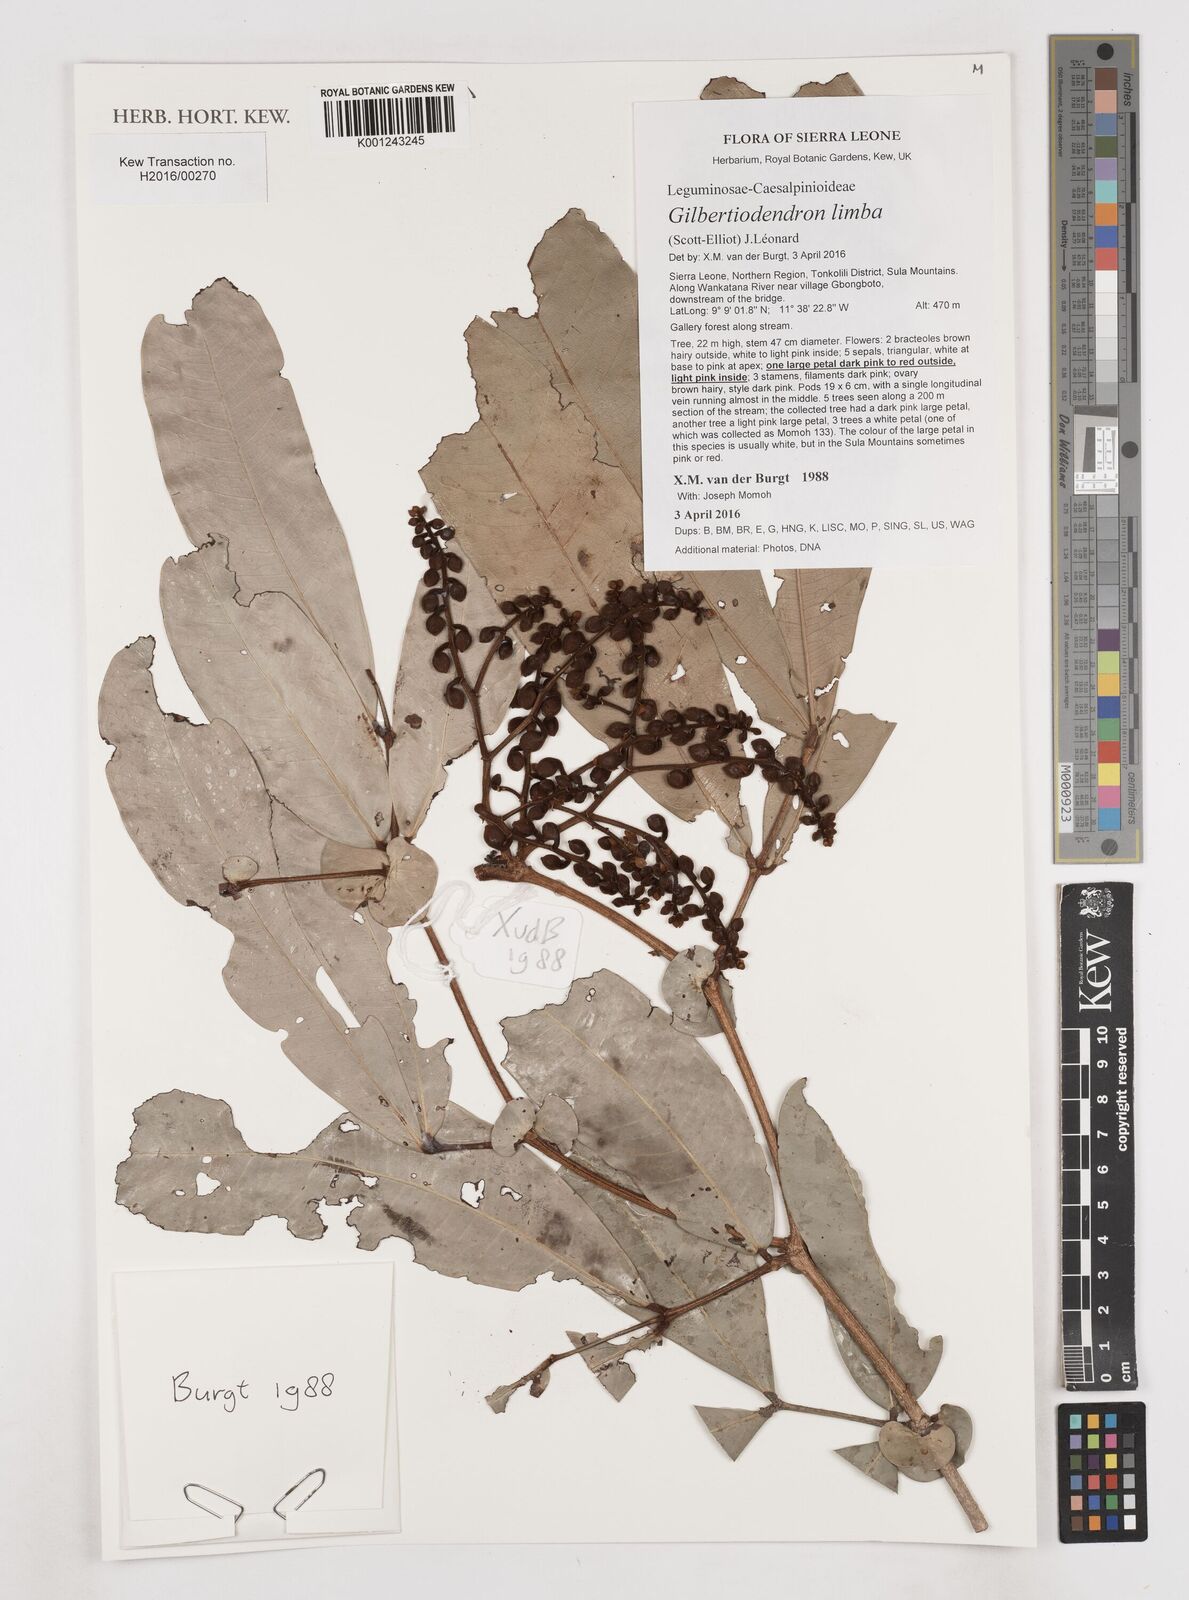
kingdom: Plantae
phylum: Tracheophyta
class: Magnoliopsida
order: Fabales
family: Fabaceae
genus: Gilbertiodendron
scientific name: Gilbertiodendron limba
